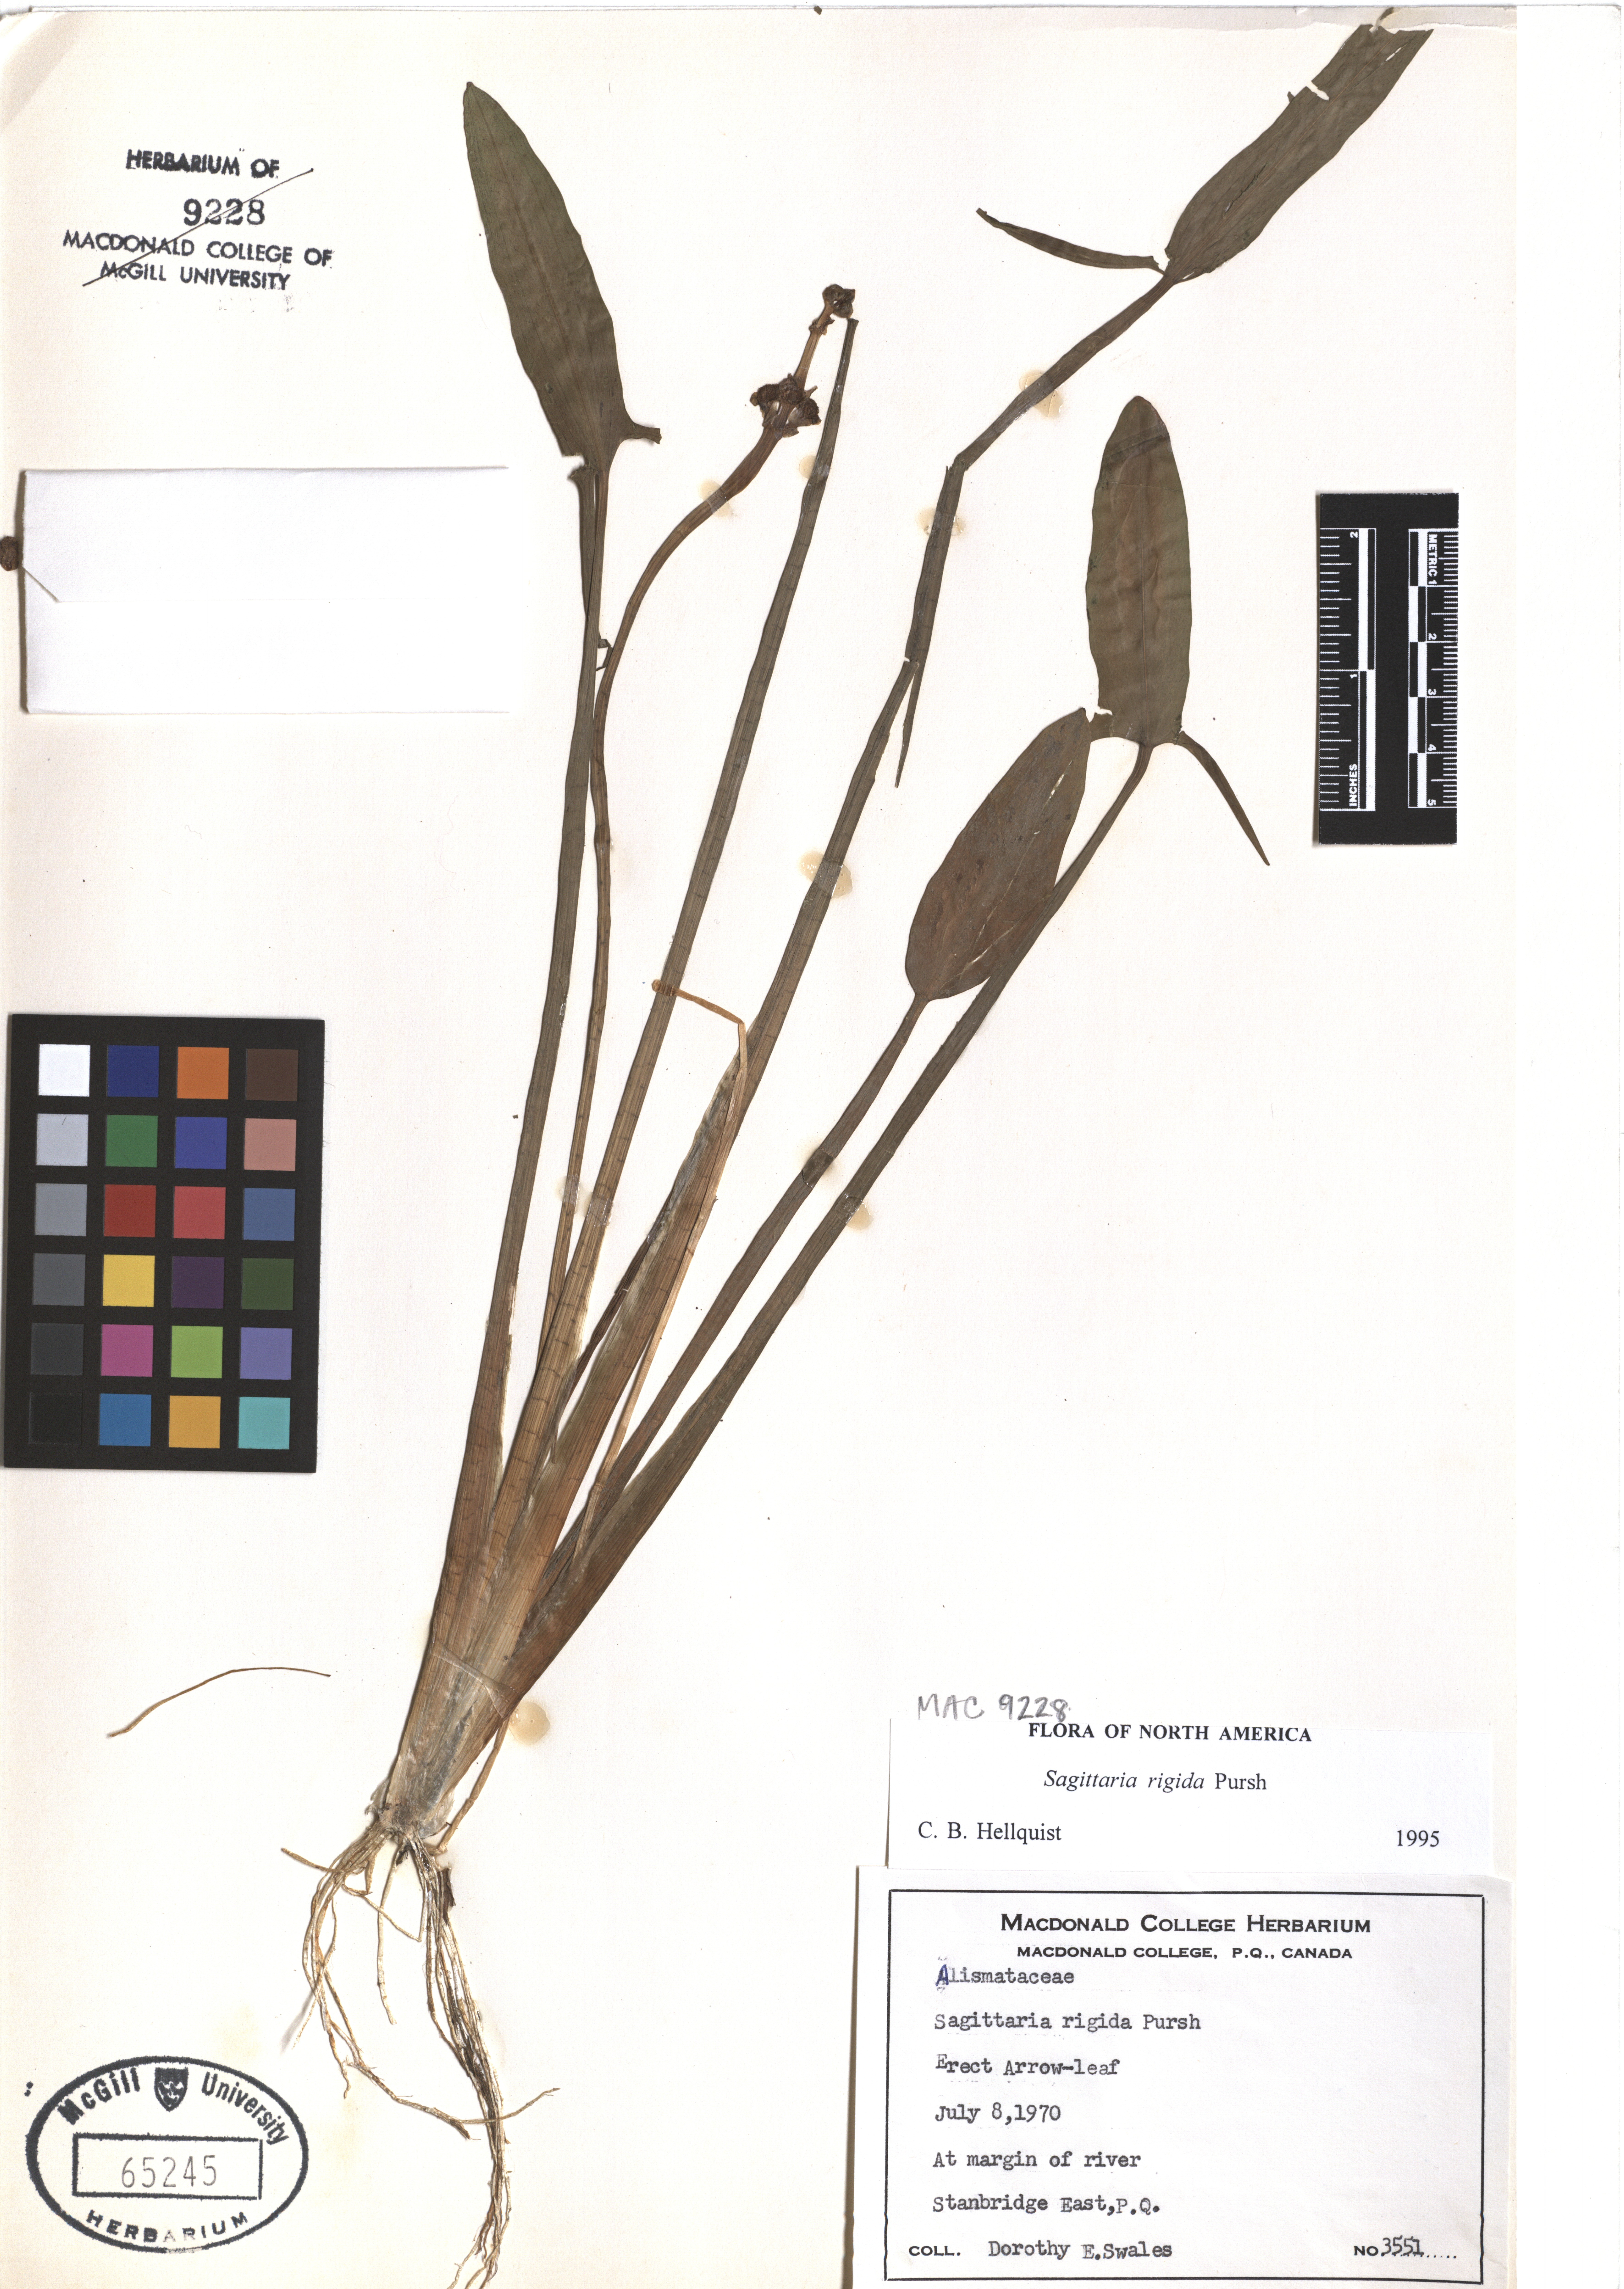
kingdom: Plantae
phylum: Tracheophyta
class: Liliopsida
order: Alismatales
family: Alismataceae
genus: Sagittaria
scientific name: Sagittaria rigida
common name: Canadian arrowhead
